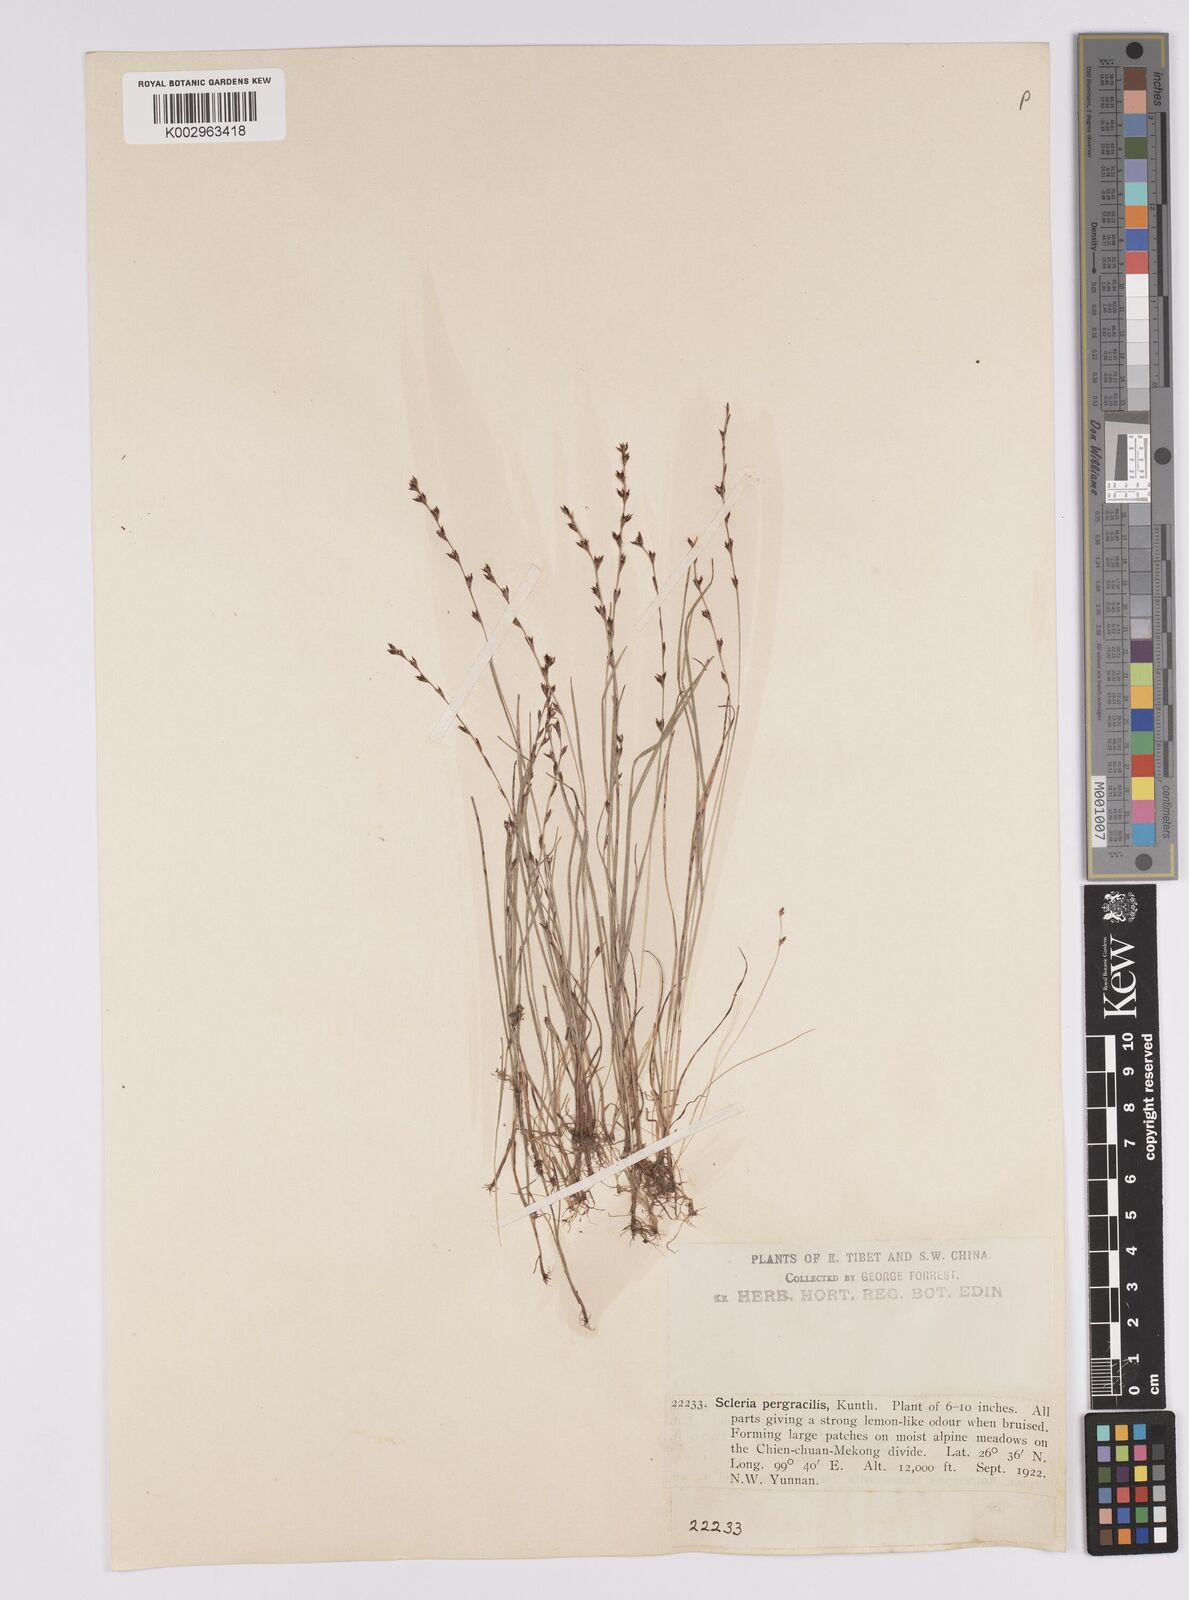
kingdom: Plantae
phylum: Tracheophyta
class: Liliopsida
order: Poales
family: Cyperaceae
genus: Scleria
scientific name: Scleria pergracilis
